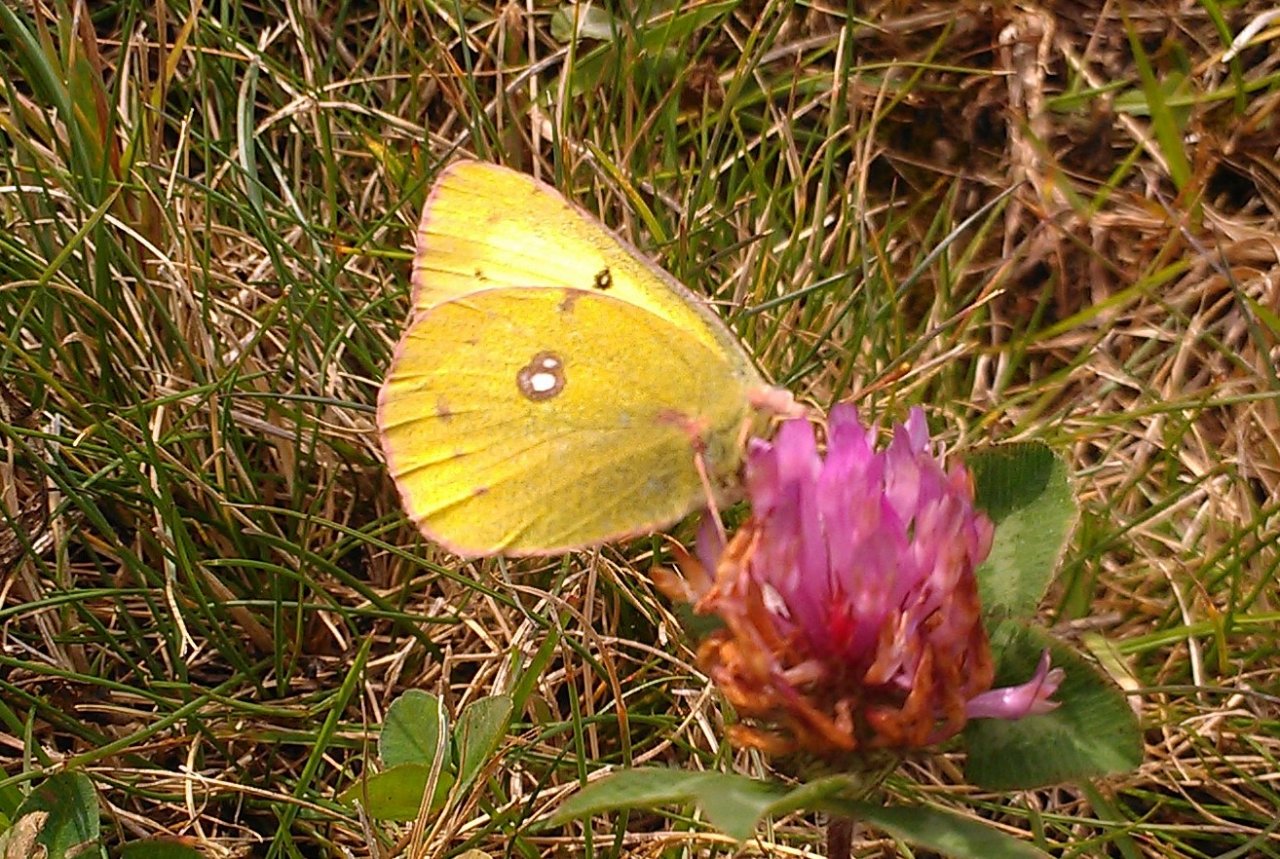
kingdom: Animalia
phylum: Arthropoda
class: Insecta
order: Lepidoptera
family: Pieridae
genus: Colias
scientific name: Colias philodice
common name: Clouded Sulphur
